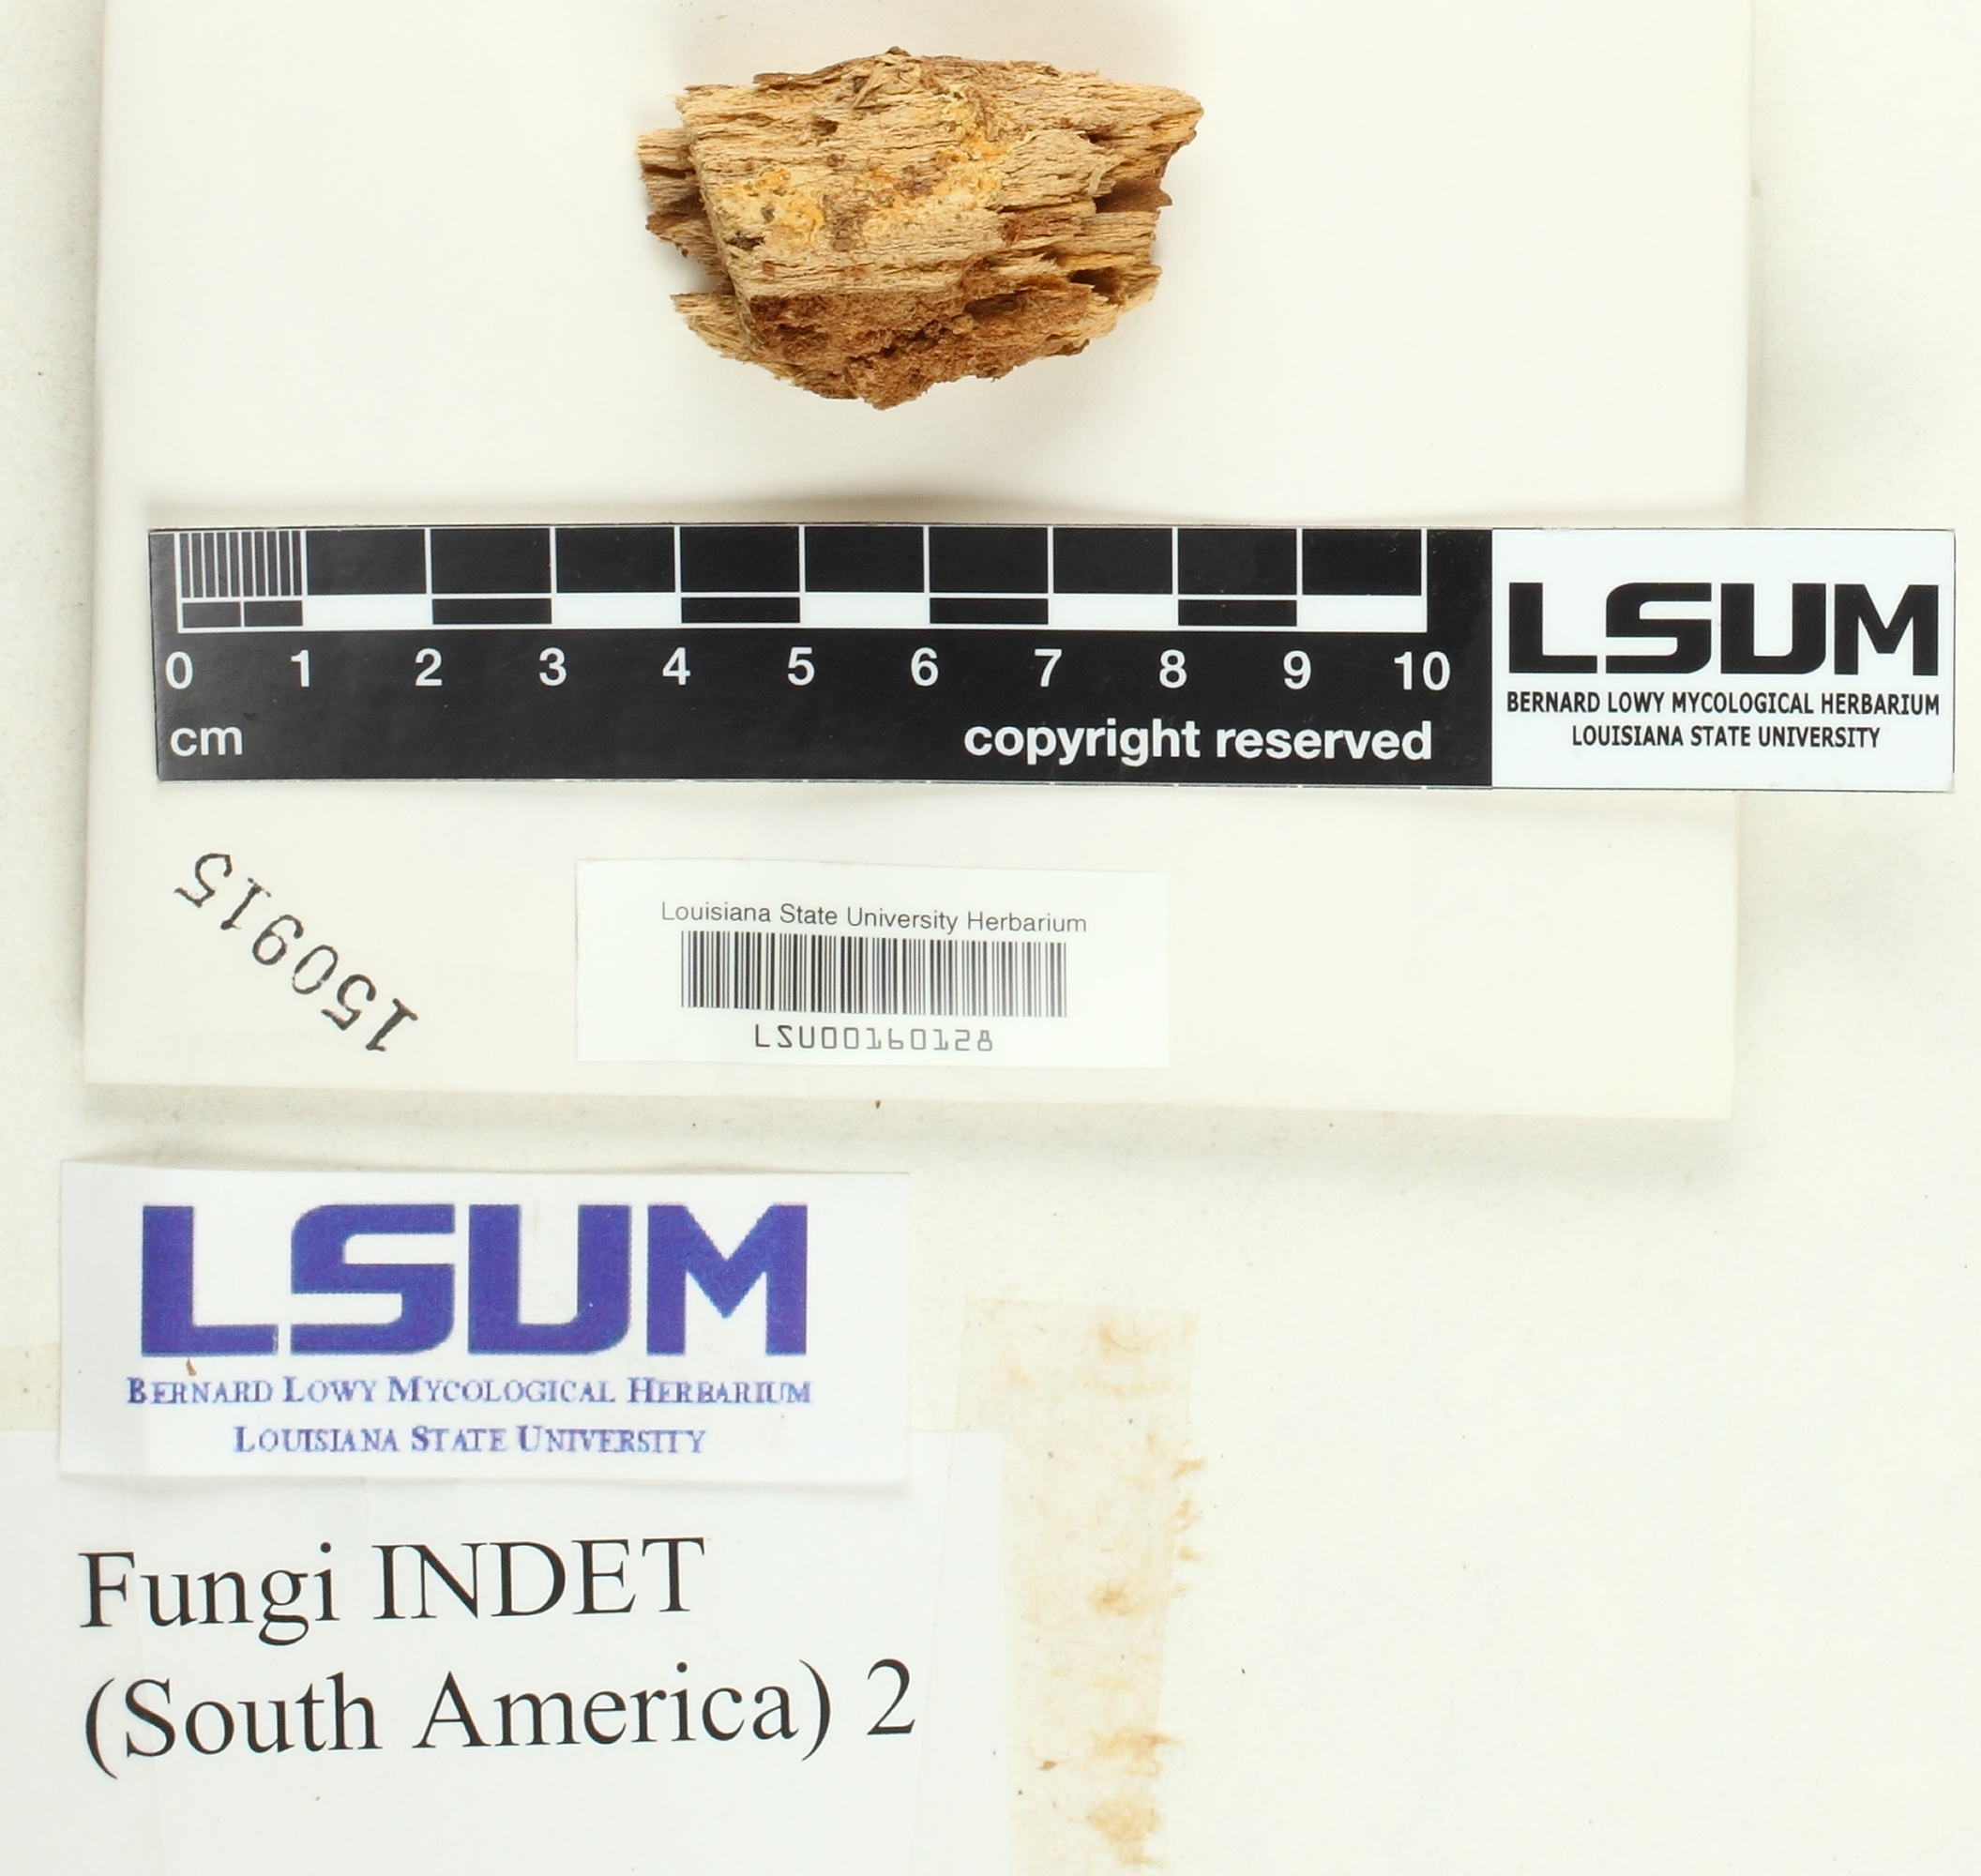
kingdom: Fungi
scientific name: Fungi
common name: Fungi
